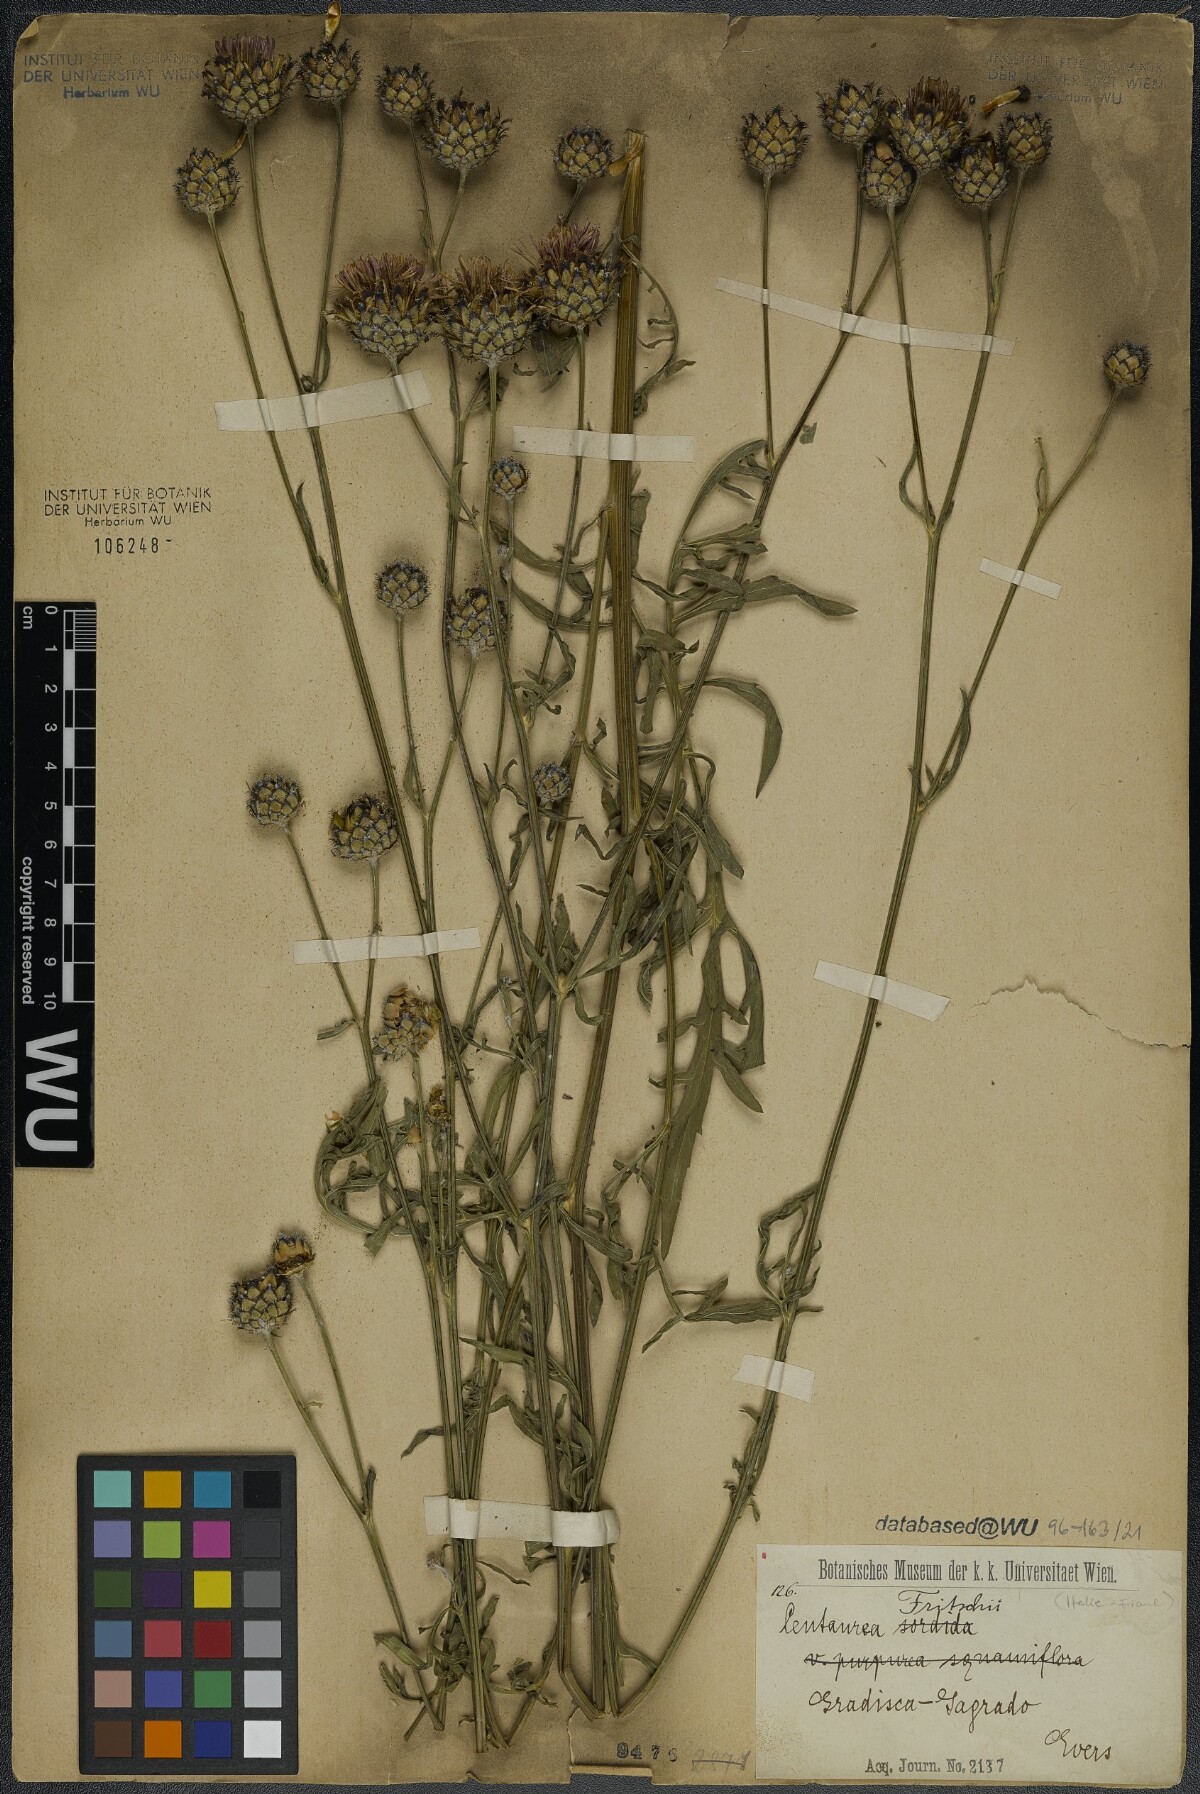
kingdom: Plantae
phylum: Tracheophyta
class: Magnoliopsida
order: Asterales
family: Asteraceae
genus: Centaurea
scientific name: Centaurea scabiosa
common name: Greater knapweed
